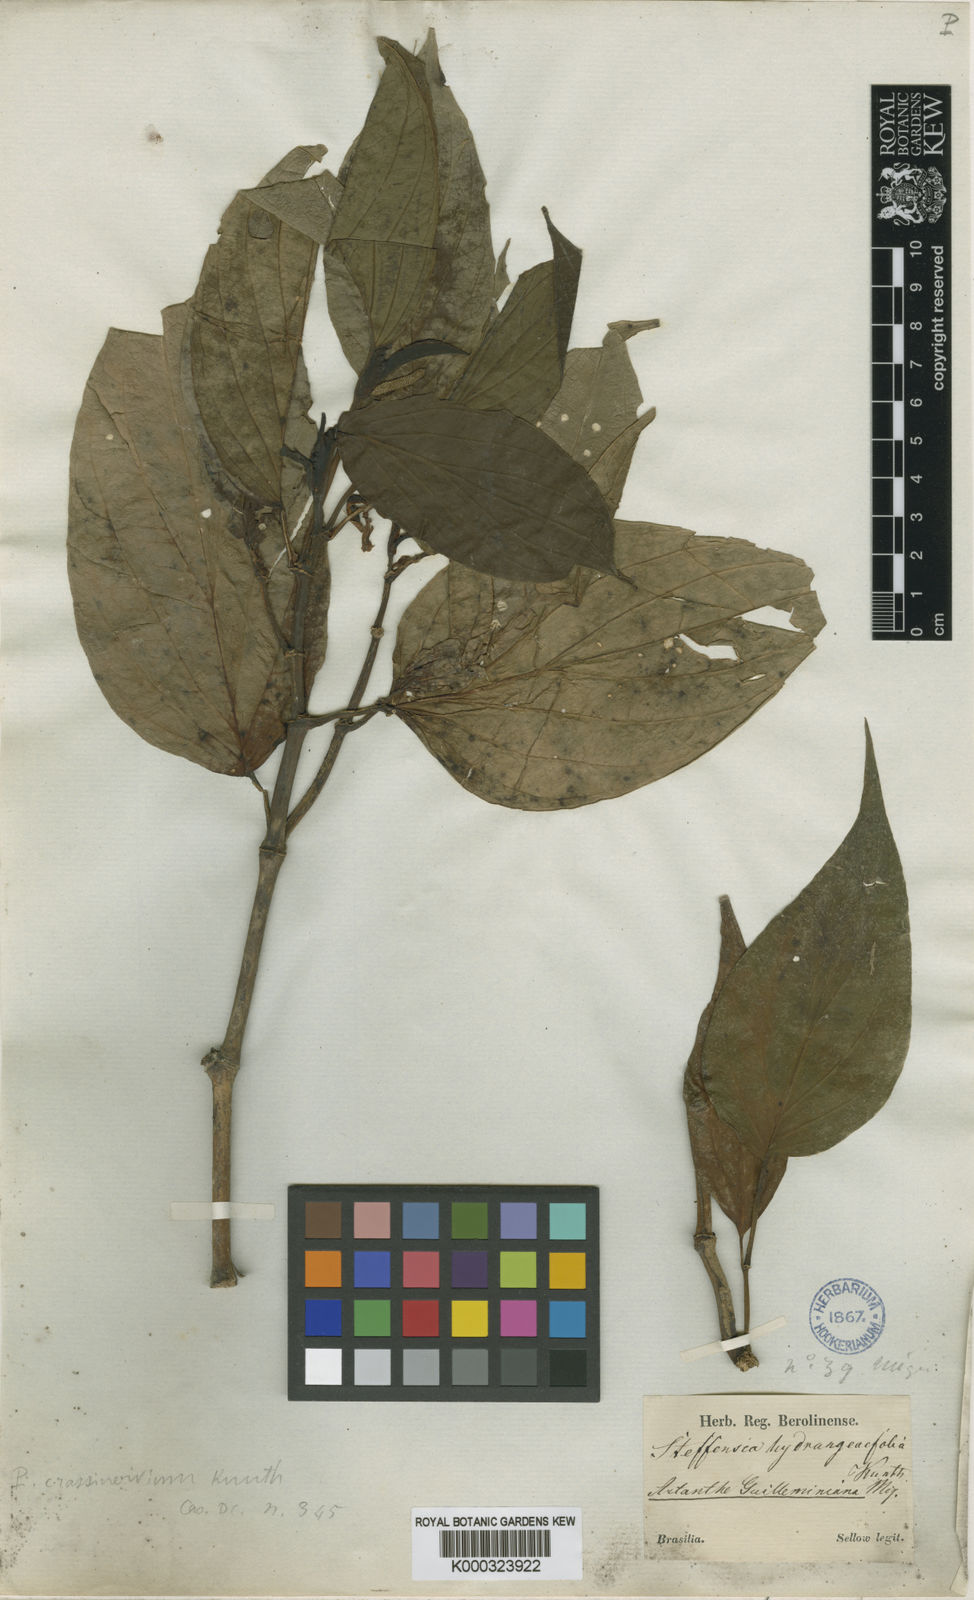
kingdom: Plantae
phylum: Tracheophyta
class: Magnoliopsida
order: Piperales
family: Piperaceae
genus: Piper
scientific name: Piper
